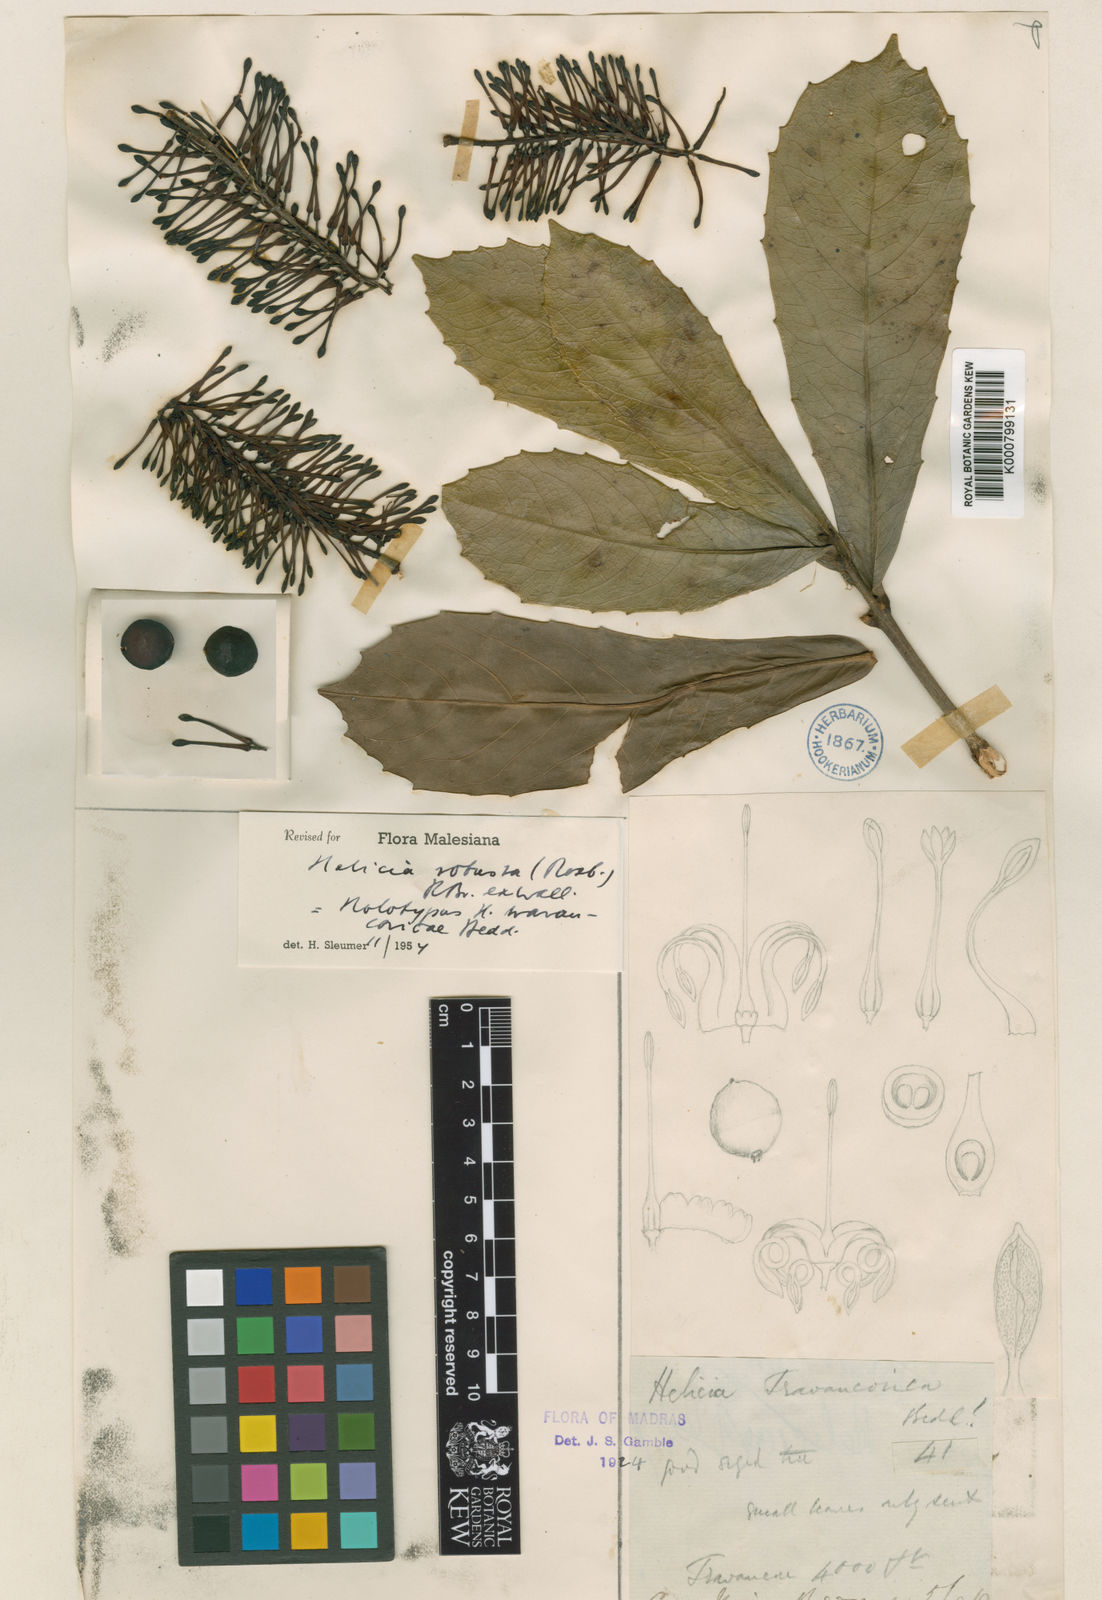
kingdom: Plantae
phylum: Tracheophyta
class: Magnoliopsida
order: Proteales
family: Proteaceae
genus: Helicia
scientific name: Helicia
